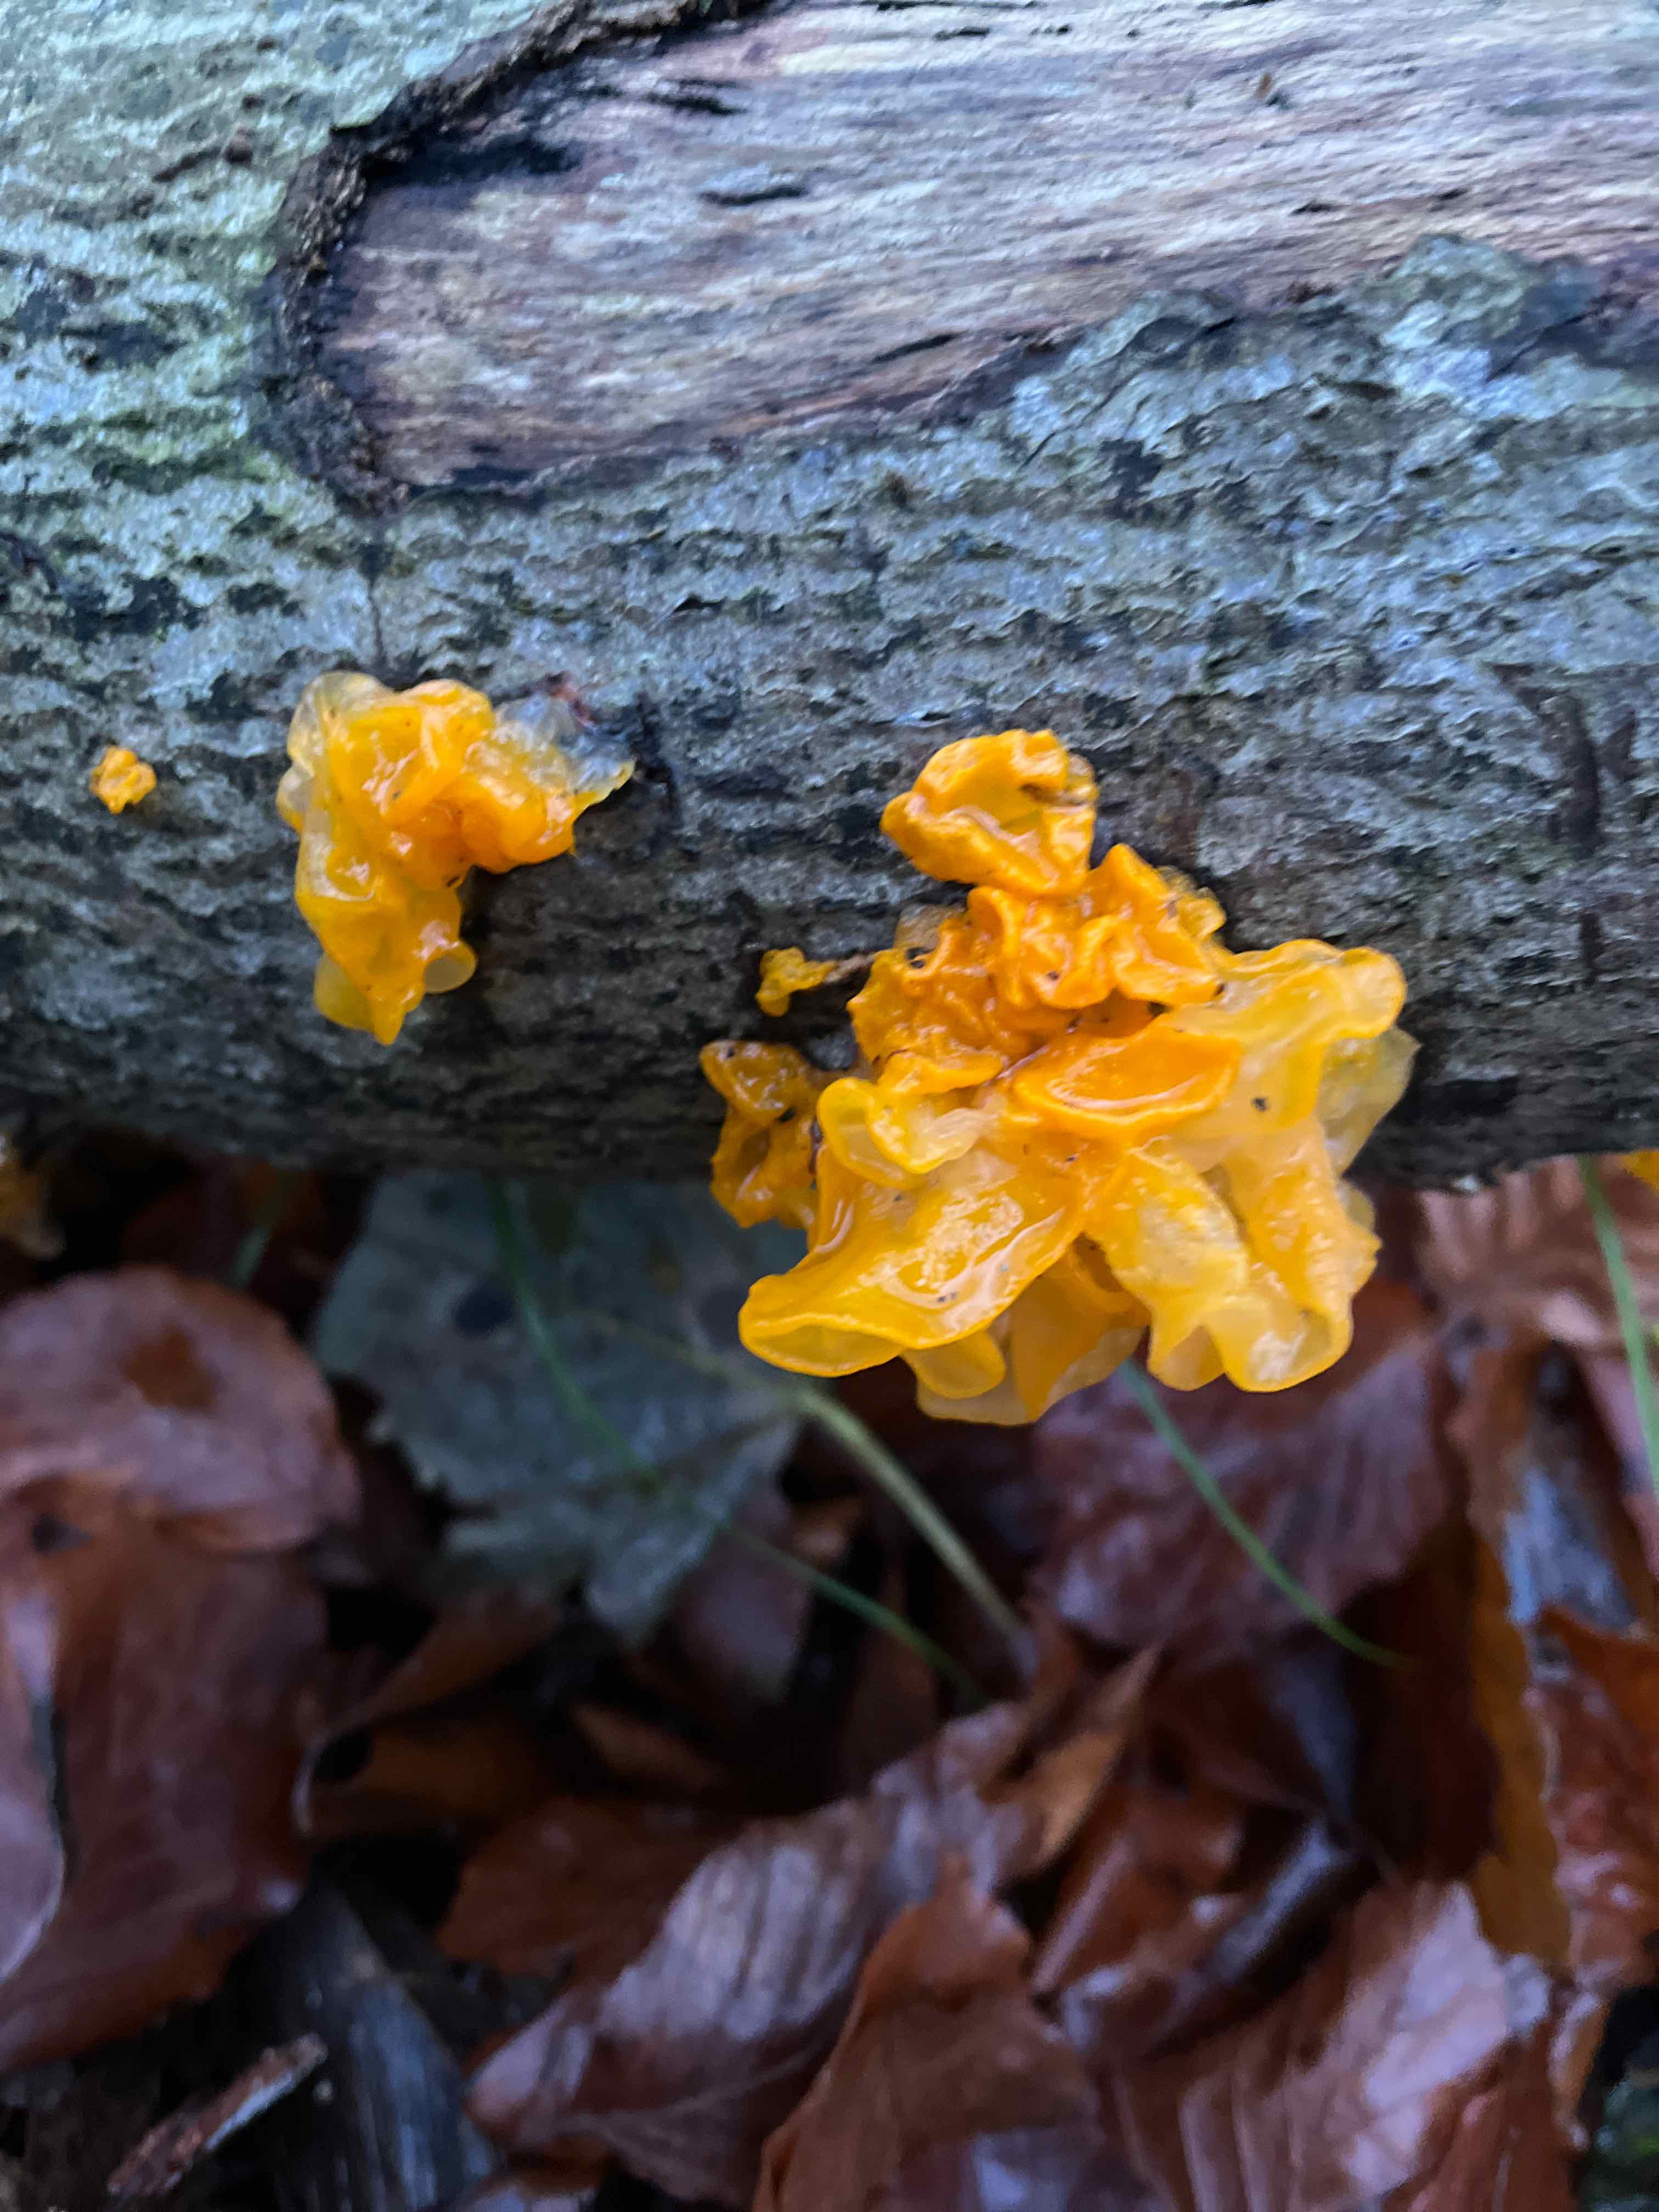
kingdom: Fungi
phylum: Basidiomycota
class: Tremellomycetes
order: Tremellales
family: Tremellaceae
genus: Tremella
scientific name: Tremella mesenterica
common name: gul bævresvamp
